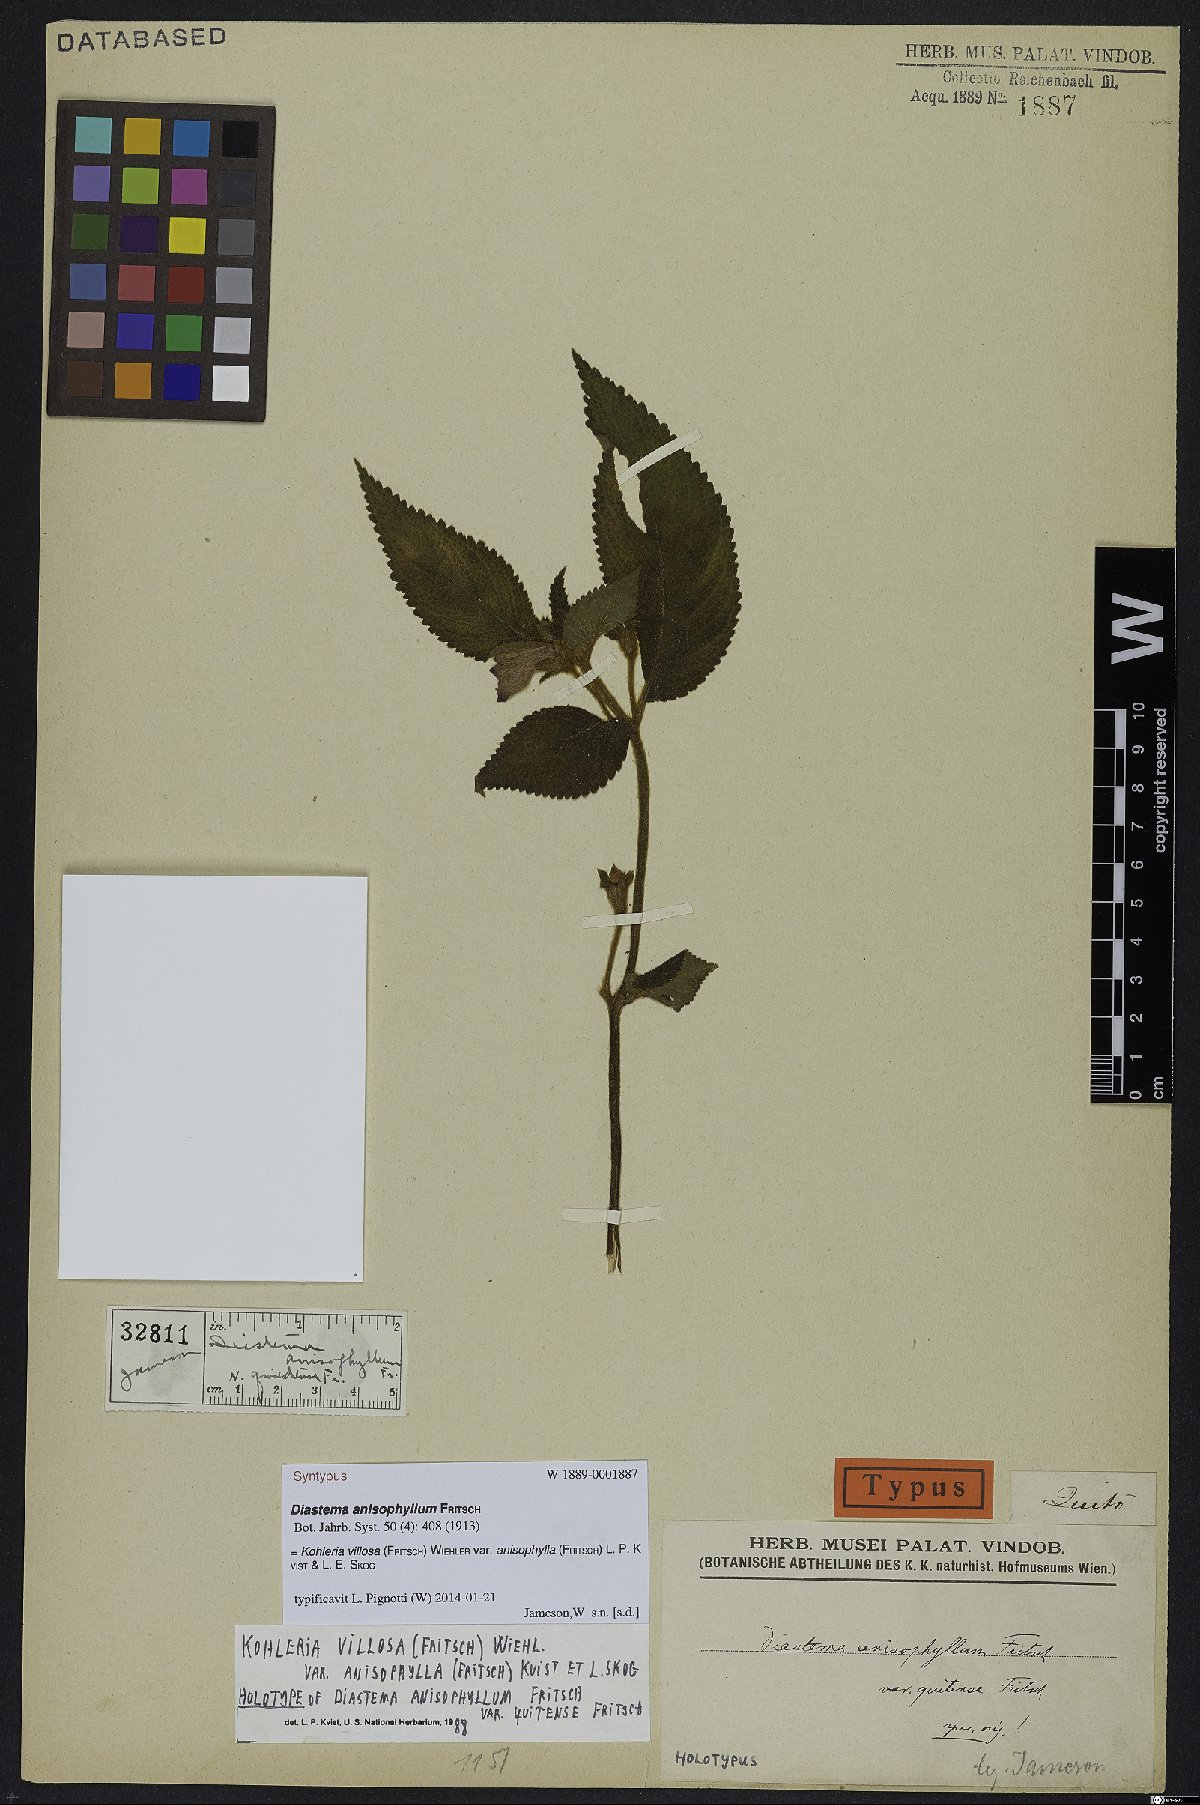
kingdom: Plantae
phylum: Tracheophyta
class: Magnoliopsida
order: Lamiales
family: Gesneriaceae
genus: Kohleria
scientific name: Kohleria villosa
